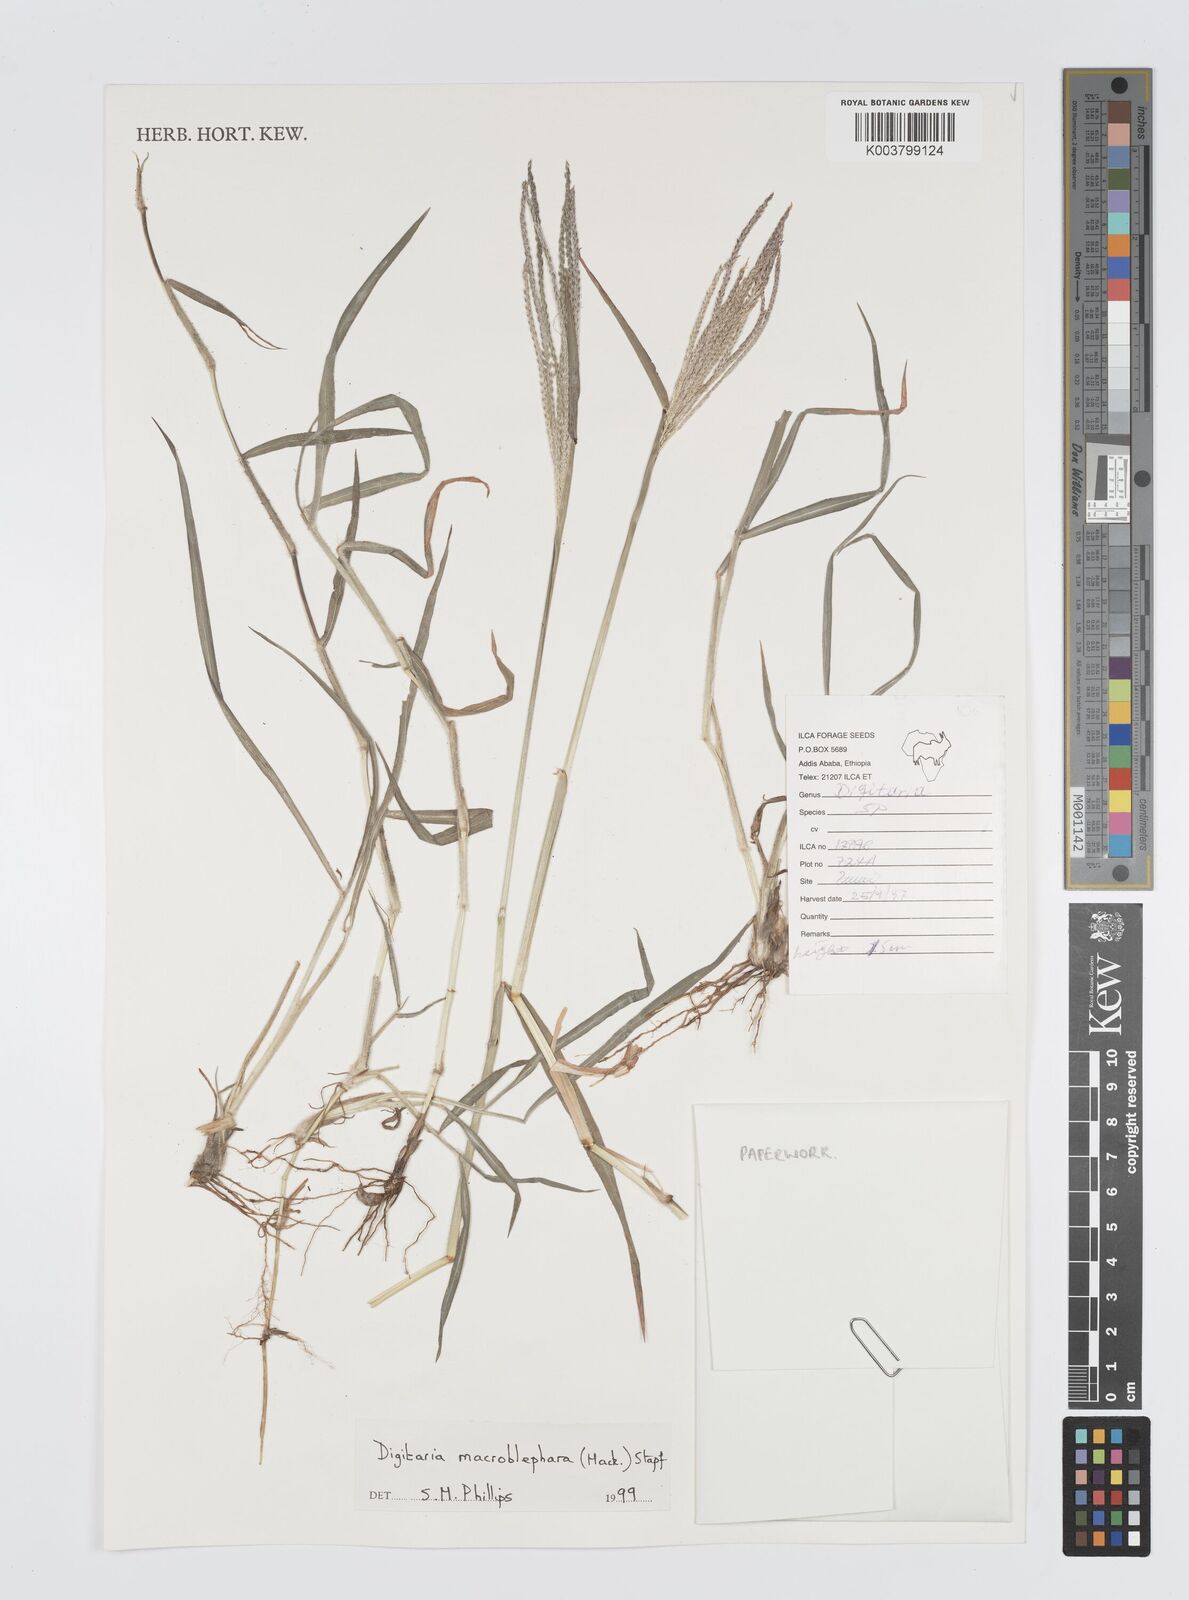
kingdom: Plantae
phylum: Tracheophyta
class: Liliopsida
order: Poales
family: Poaceae
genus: Digitaria
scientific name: Digitaria macroblephara
